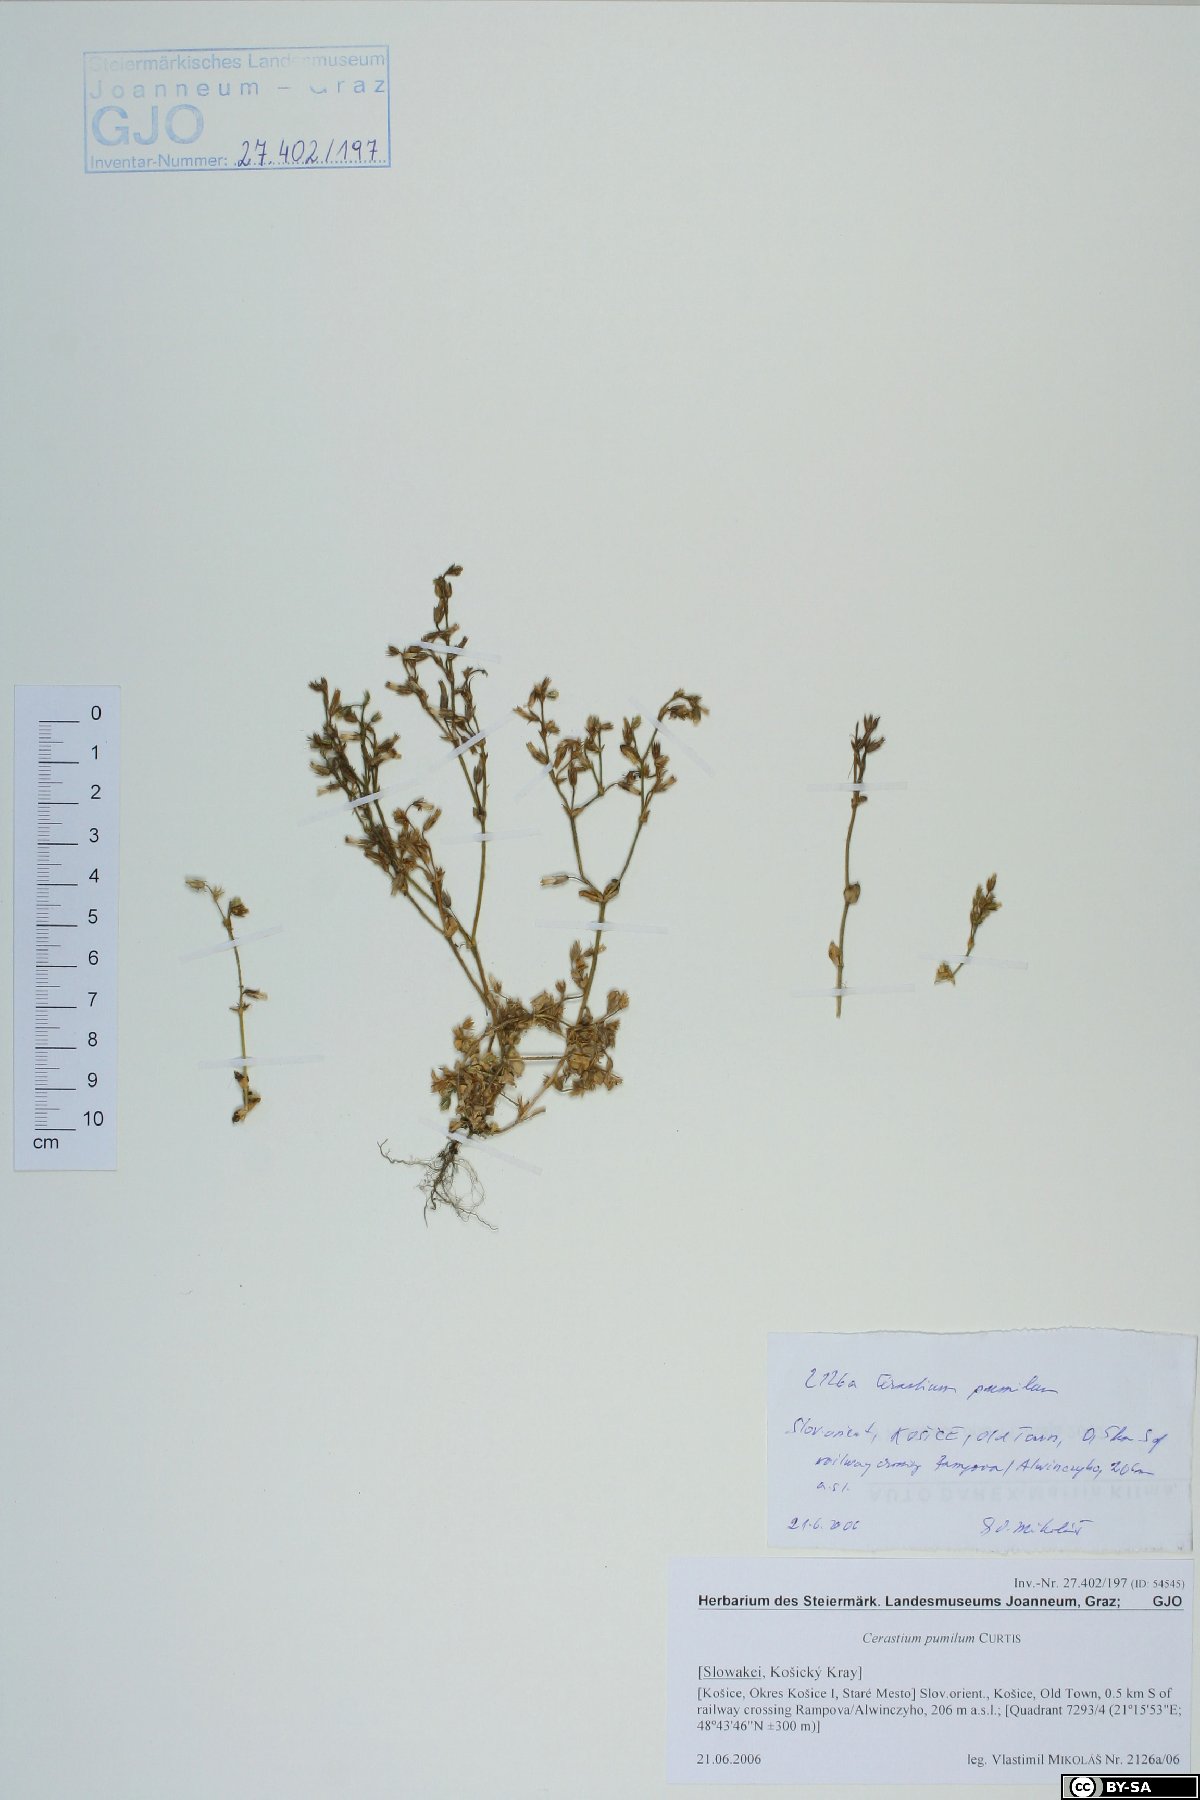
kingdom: Plantae
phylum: Tracheophyta
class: Magnoliopsida
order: Caryophyllales
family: Caryophyllaceae
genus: Cerastium
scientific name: Cerastium pumilum
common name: Dwarf mouse-ear
